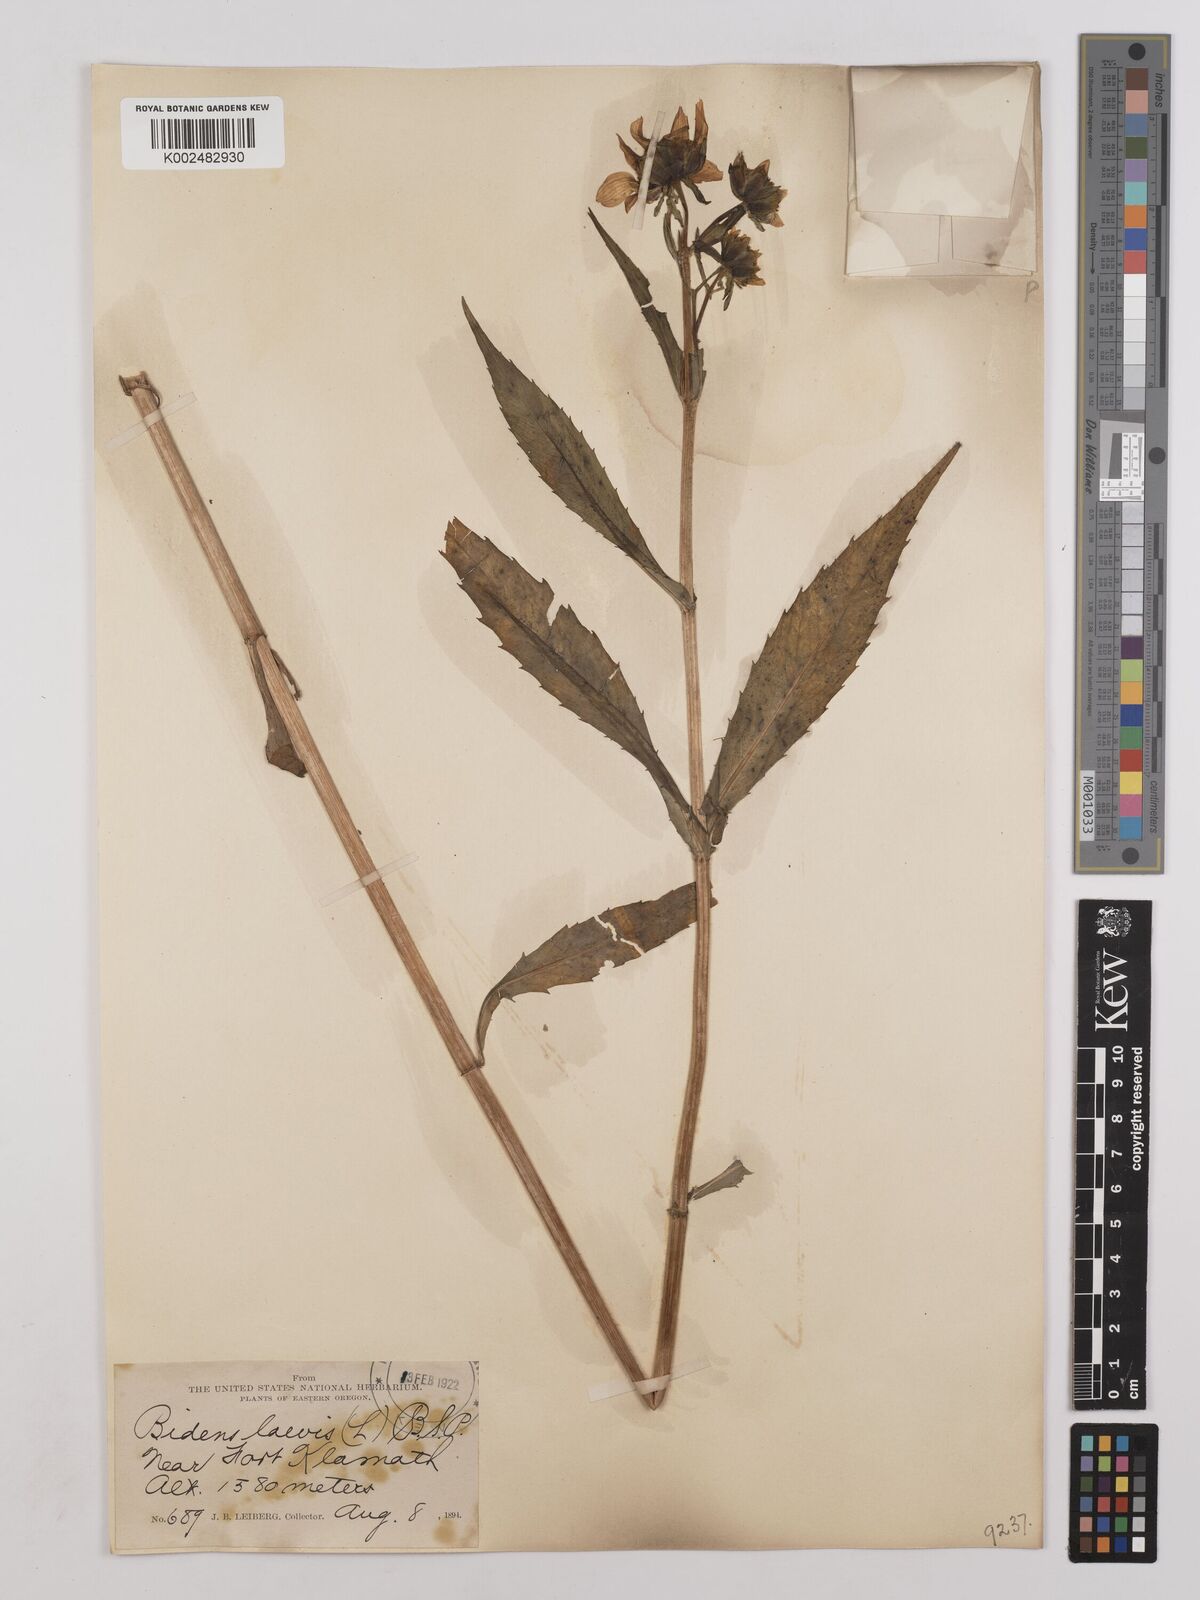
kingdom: Plantae
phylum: Tracheophyta
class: Magnoliopsida
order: Asterales
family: Asteraceae
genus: Bidens
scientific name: Bidens
